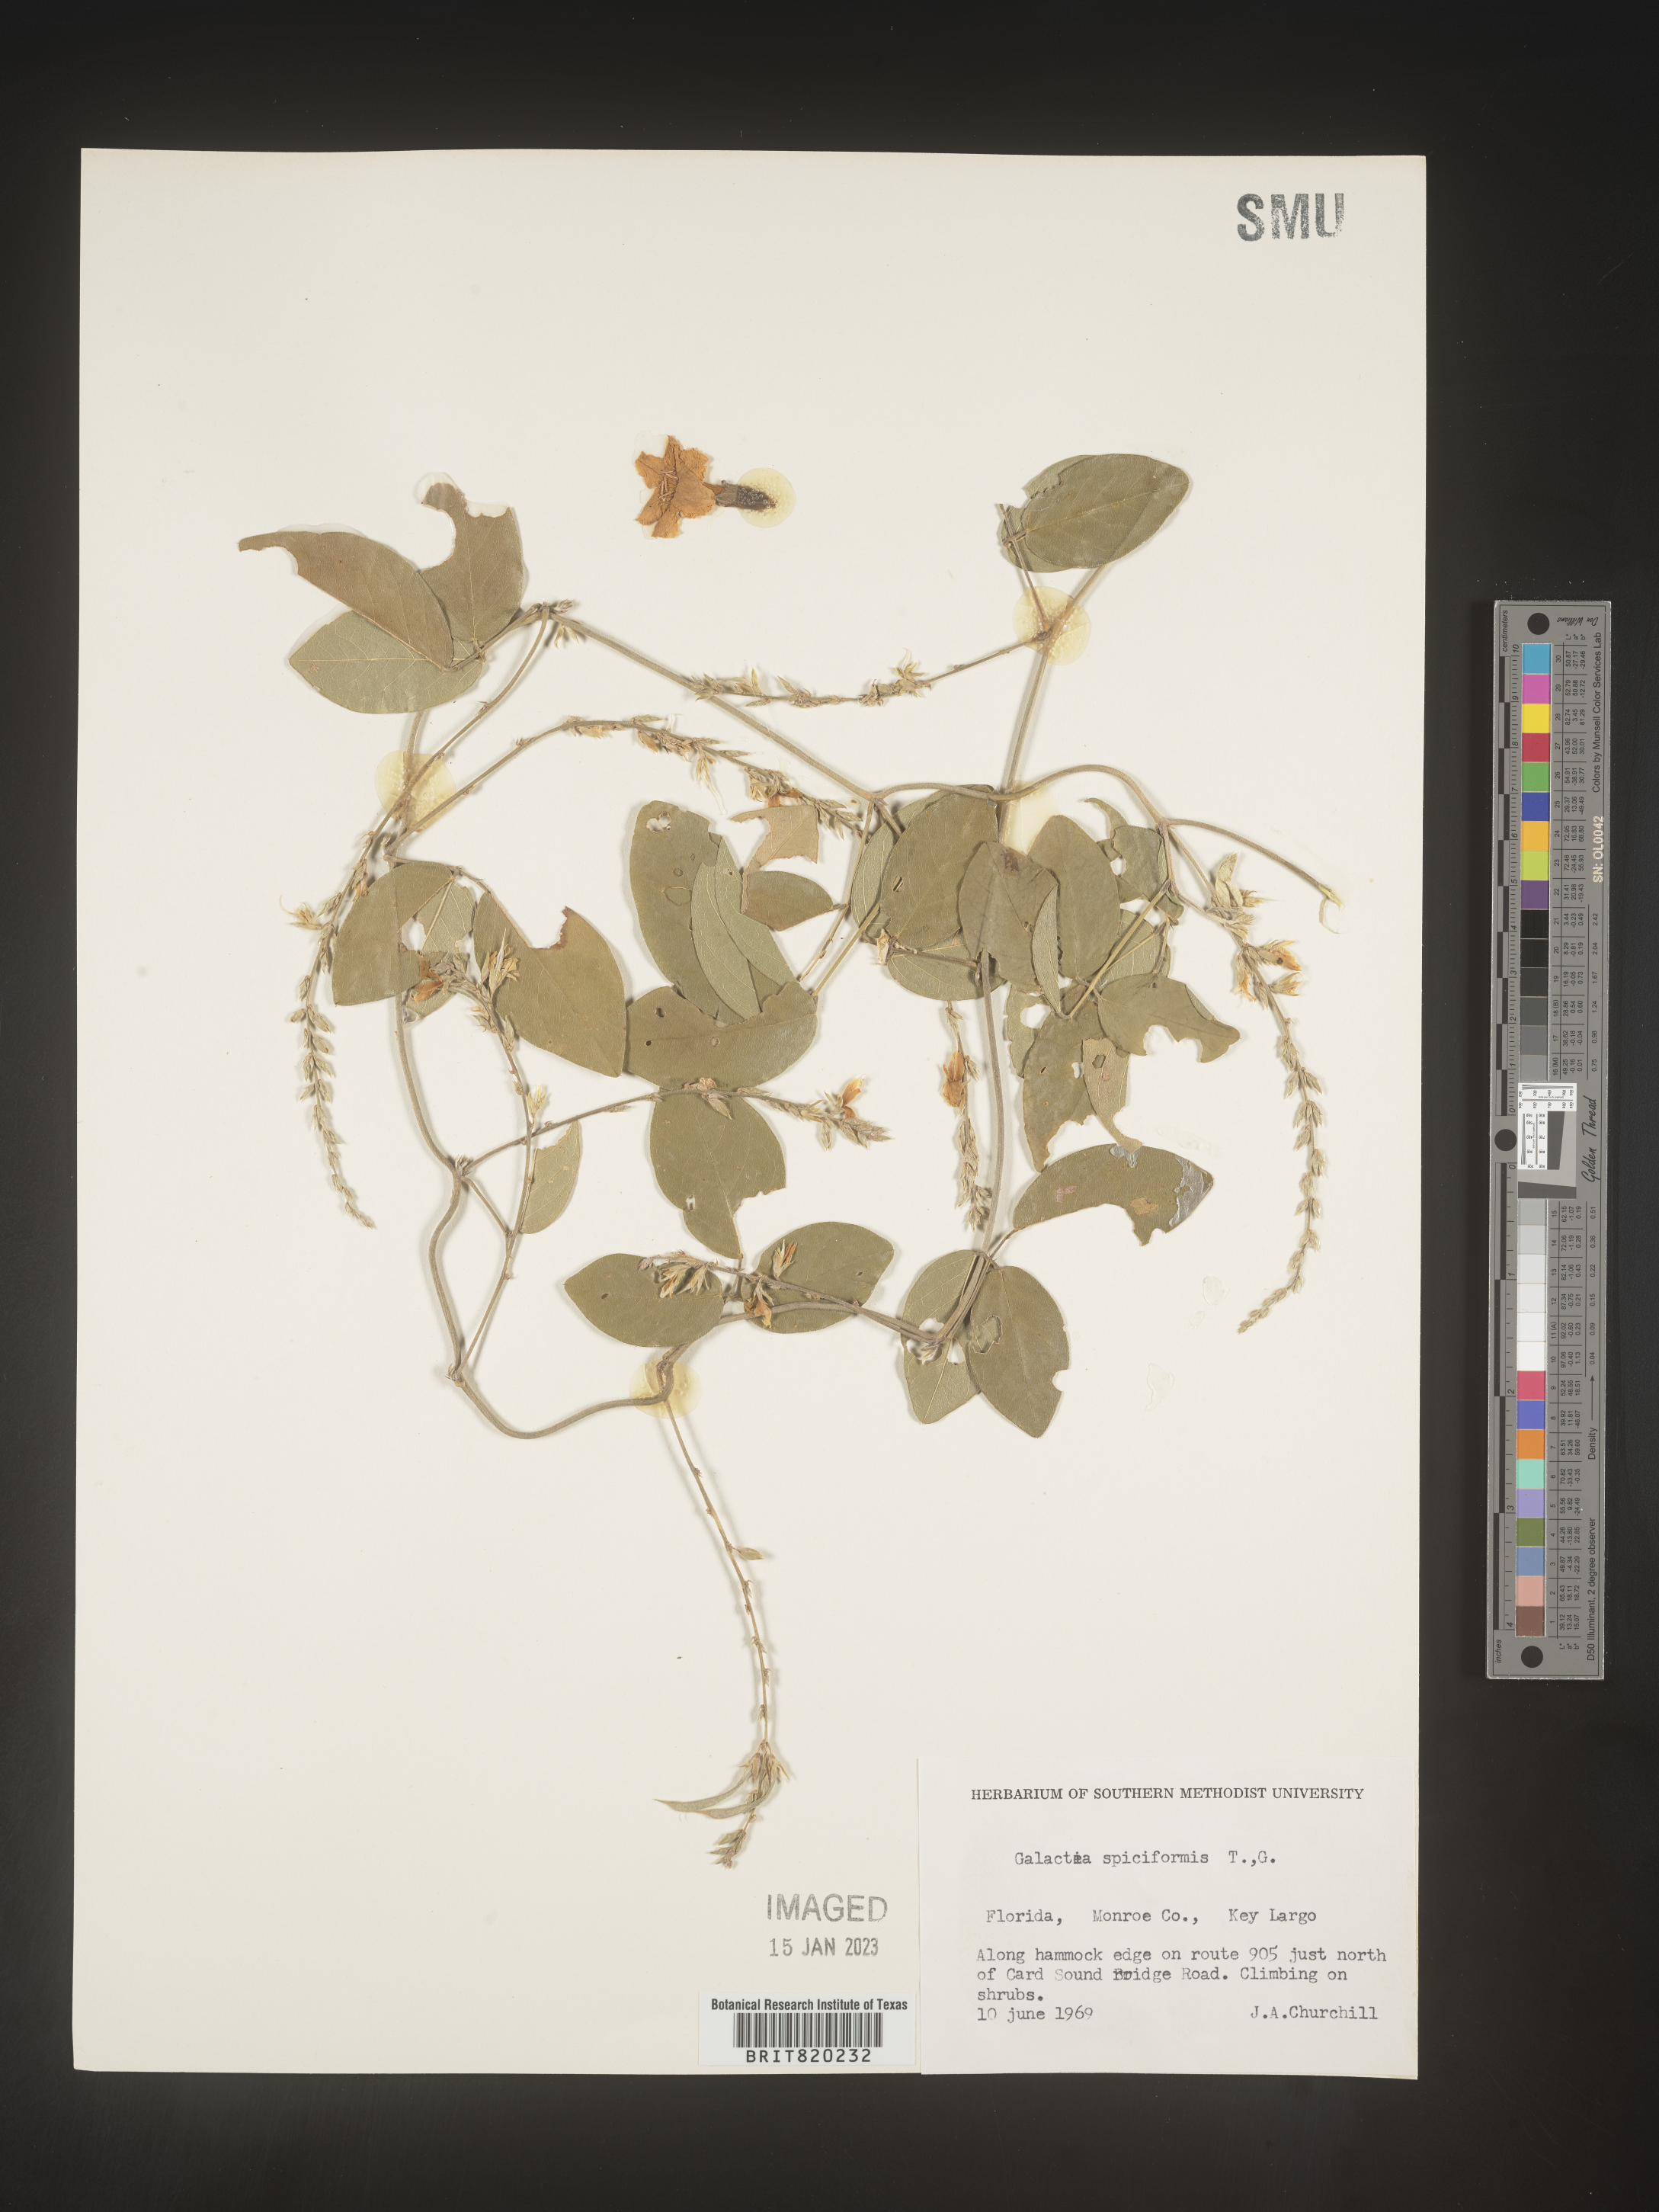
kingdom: Plantae
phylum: Tracheophyta
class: Magnoliopsida
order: Fabales
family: Fabaceae
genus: Galactia
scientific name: Galactia striata
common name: Florida hammock milkpea
